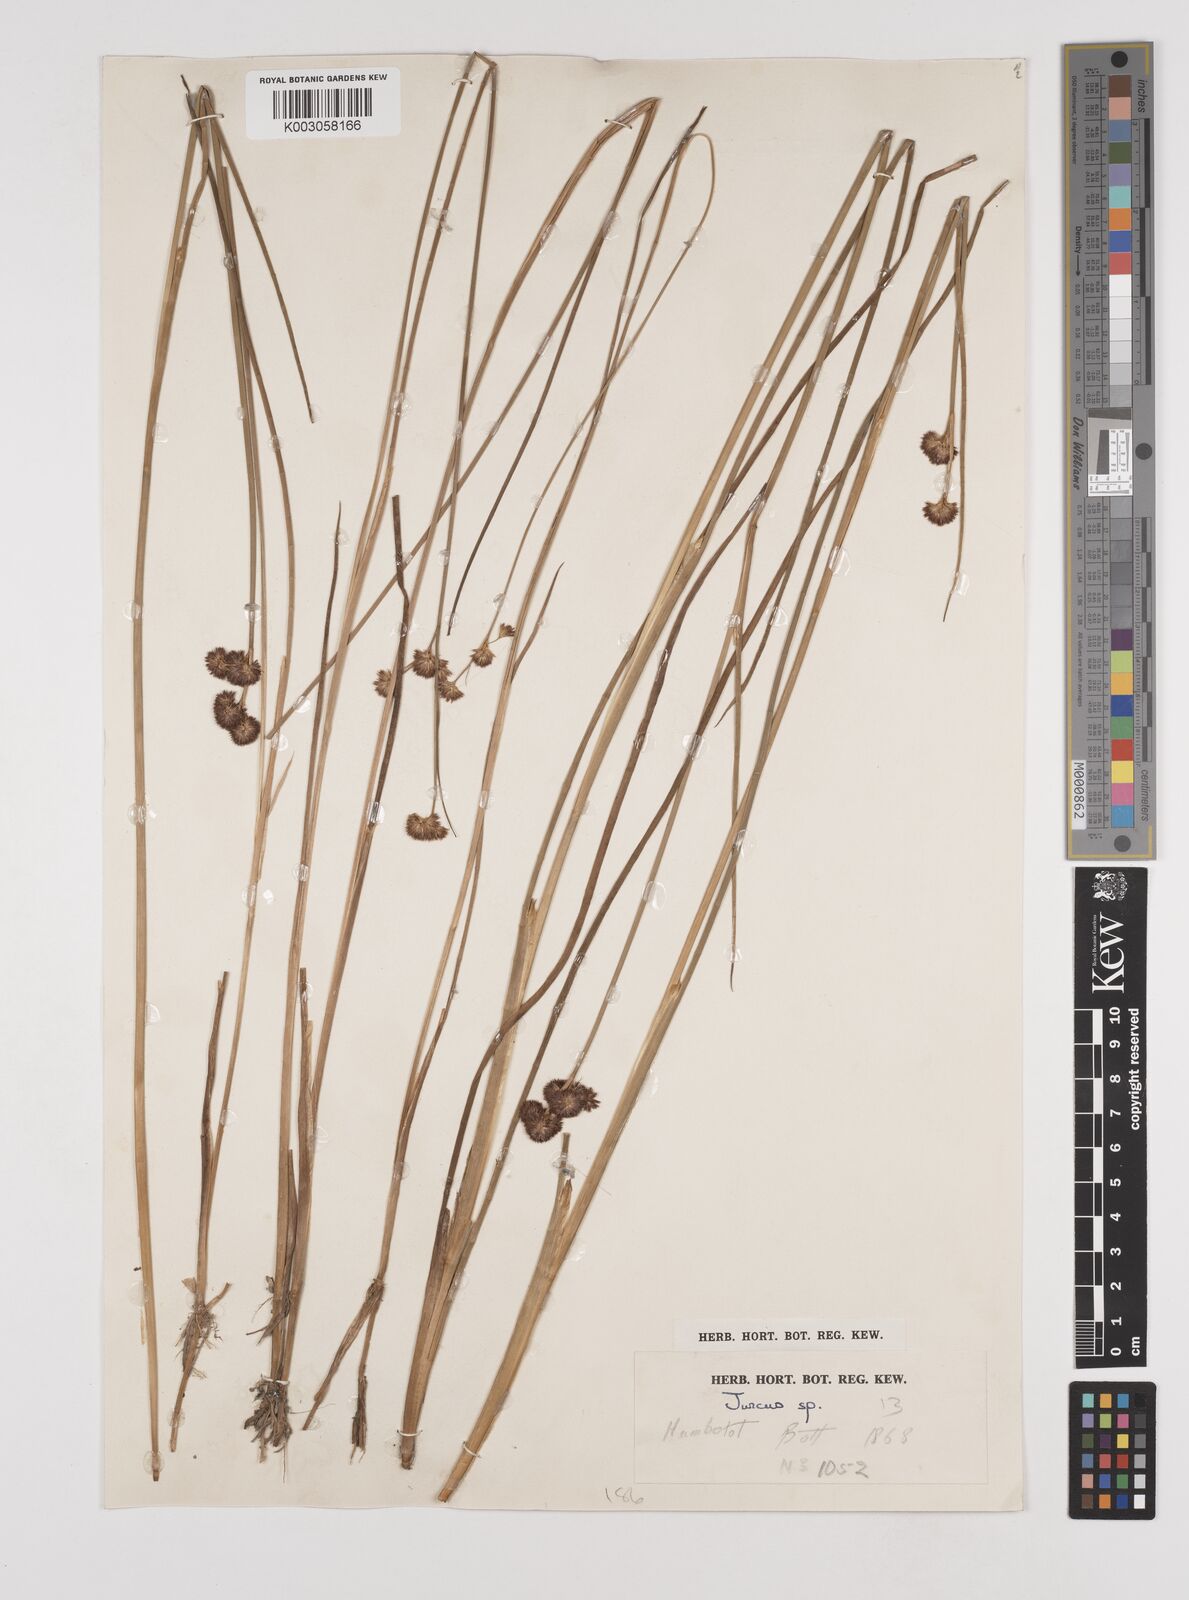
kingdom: Plantae
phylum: Tracheophyta
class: Liliopsida
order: Poales
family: Juncaceae
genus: Juncus
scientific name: Juncus
